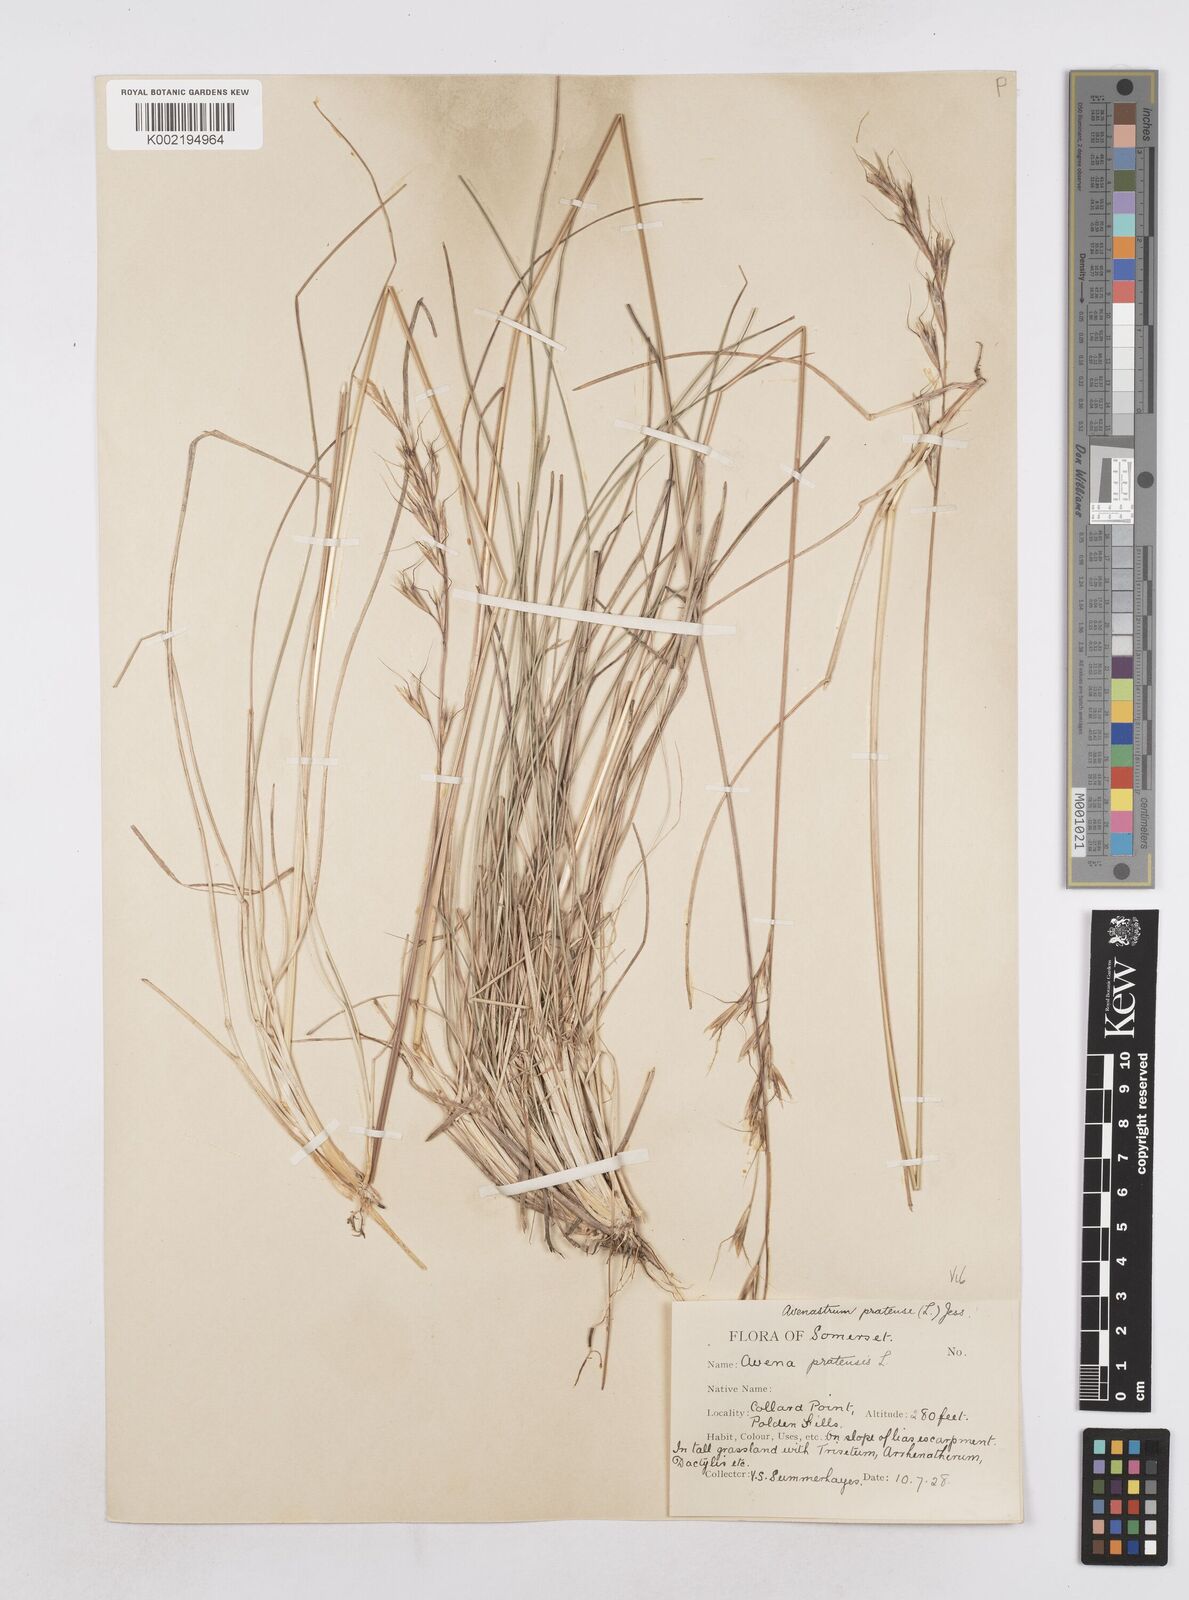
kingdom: Plantae
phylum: Tracheophyta
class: Liliopsida
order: Poales
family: Poaceae
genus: Helictochloa
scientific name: Helictochloa pratensis
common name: Meadow oat grass
